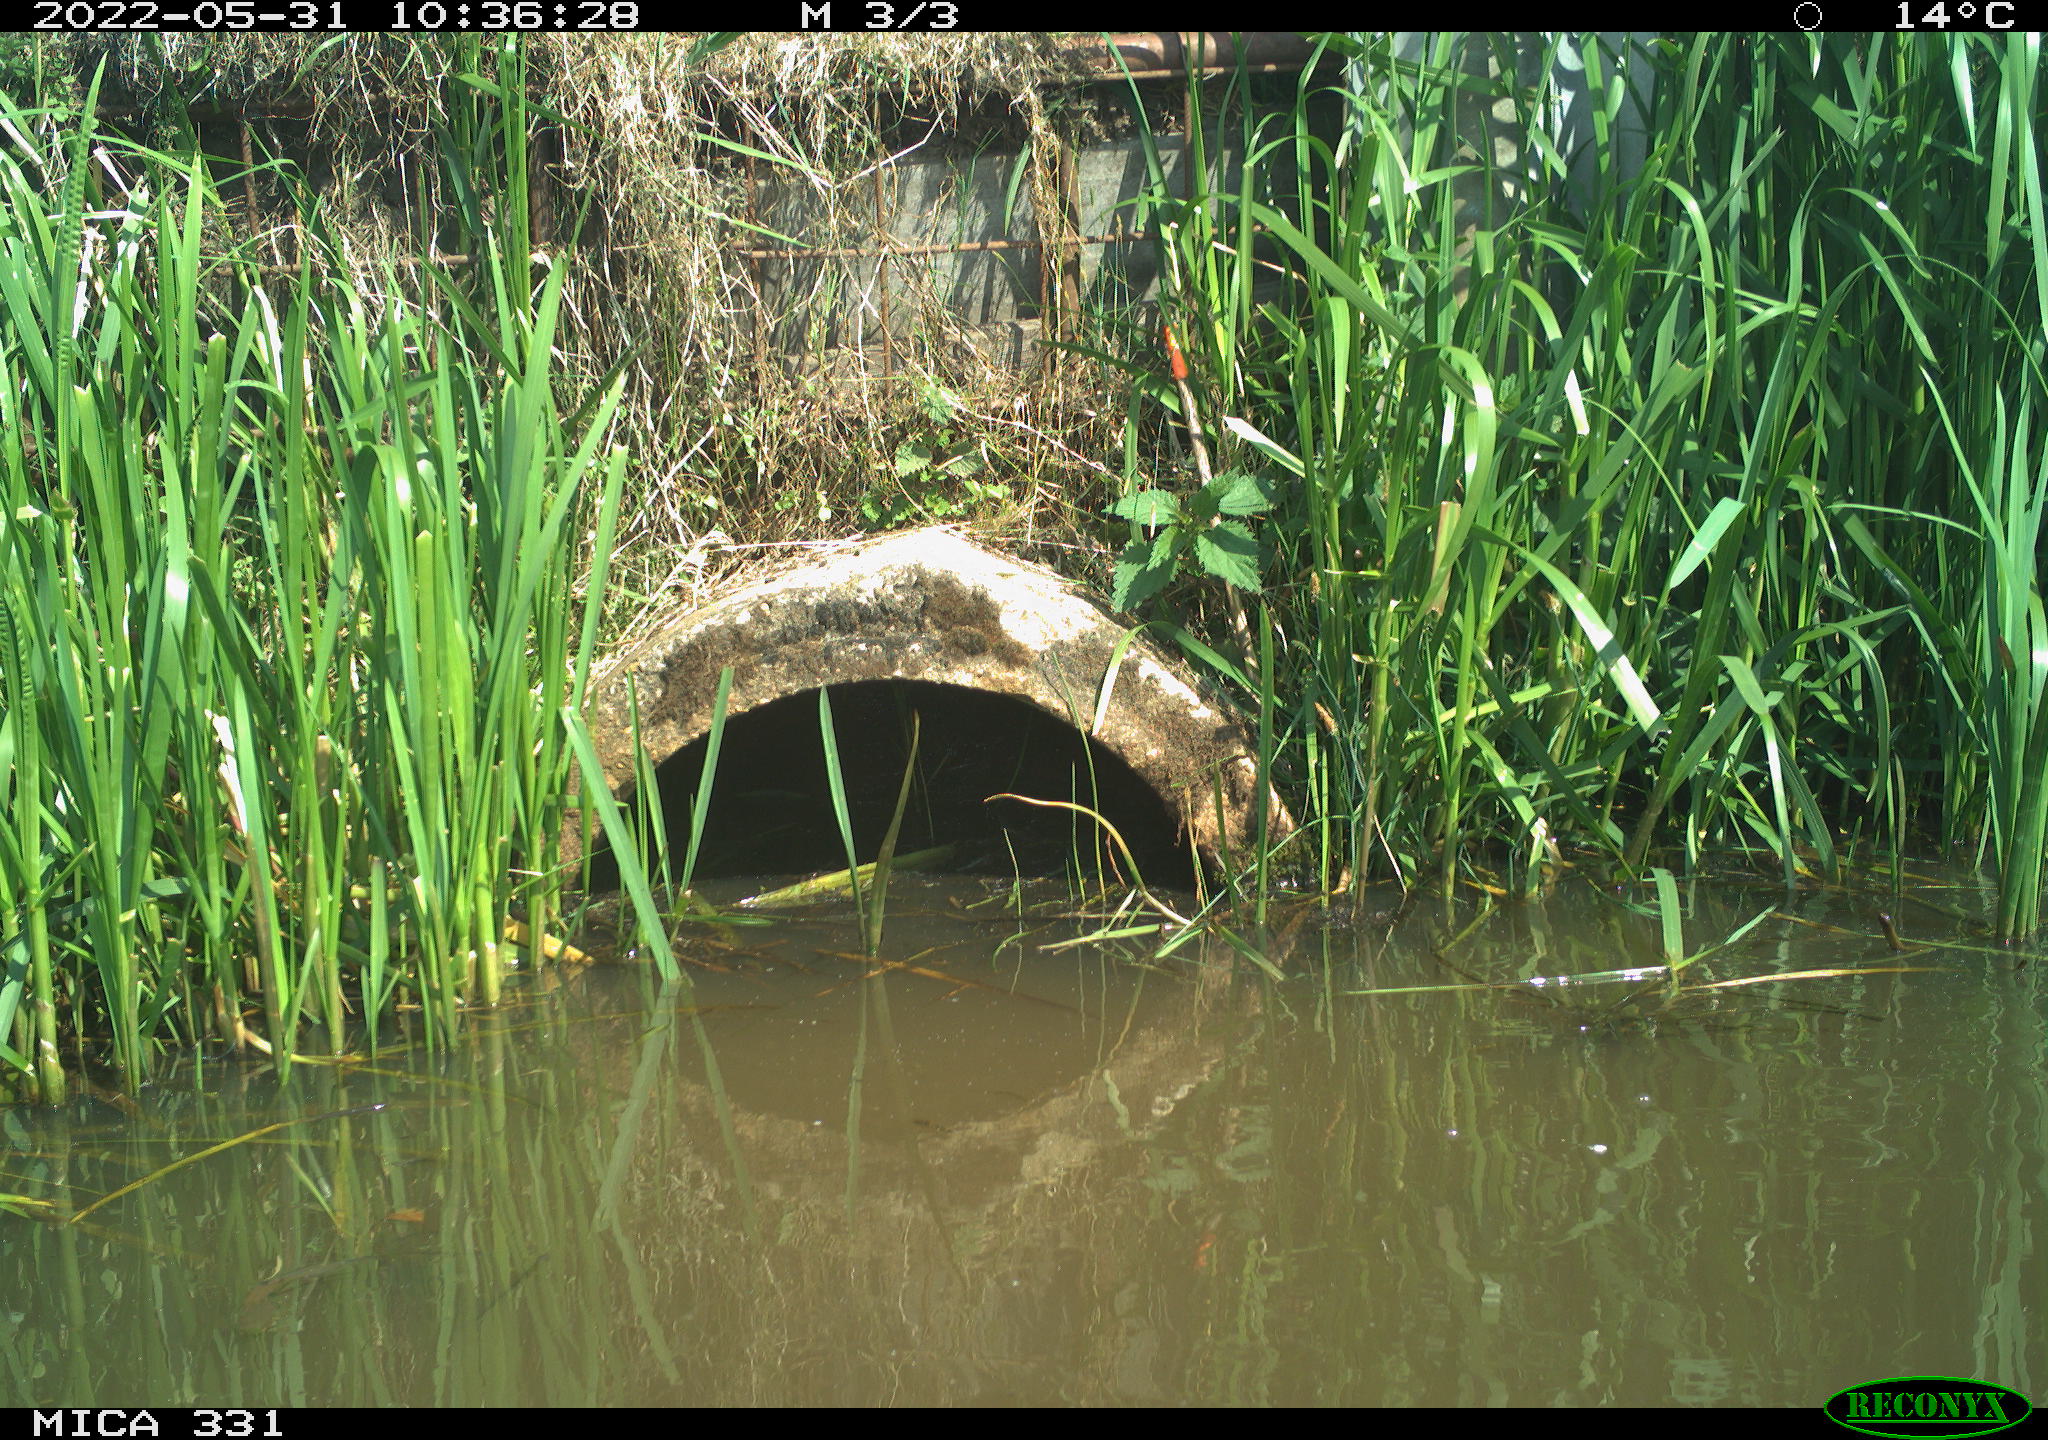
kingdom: Animalia
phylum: Chordata
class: Aves
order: Gruiformes
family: Rallidae
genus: Fulica
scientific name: Fulica atra
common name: Eurasian coot
